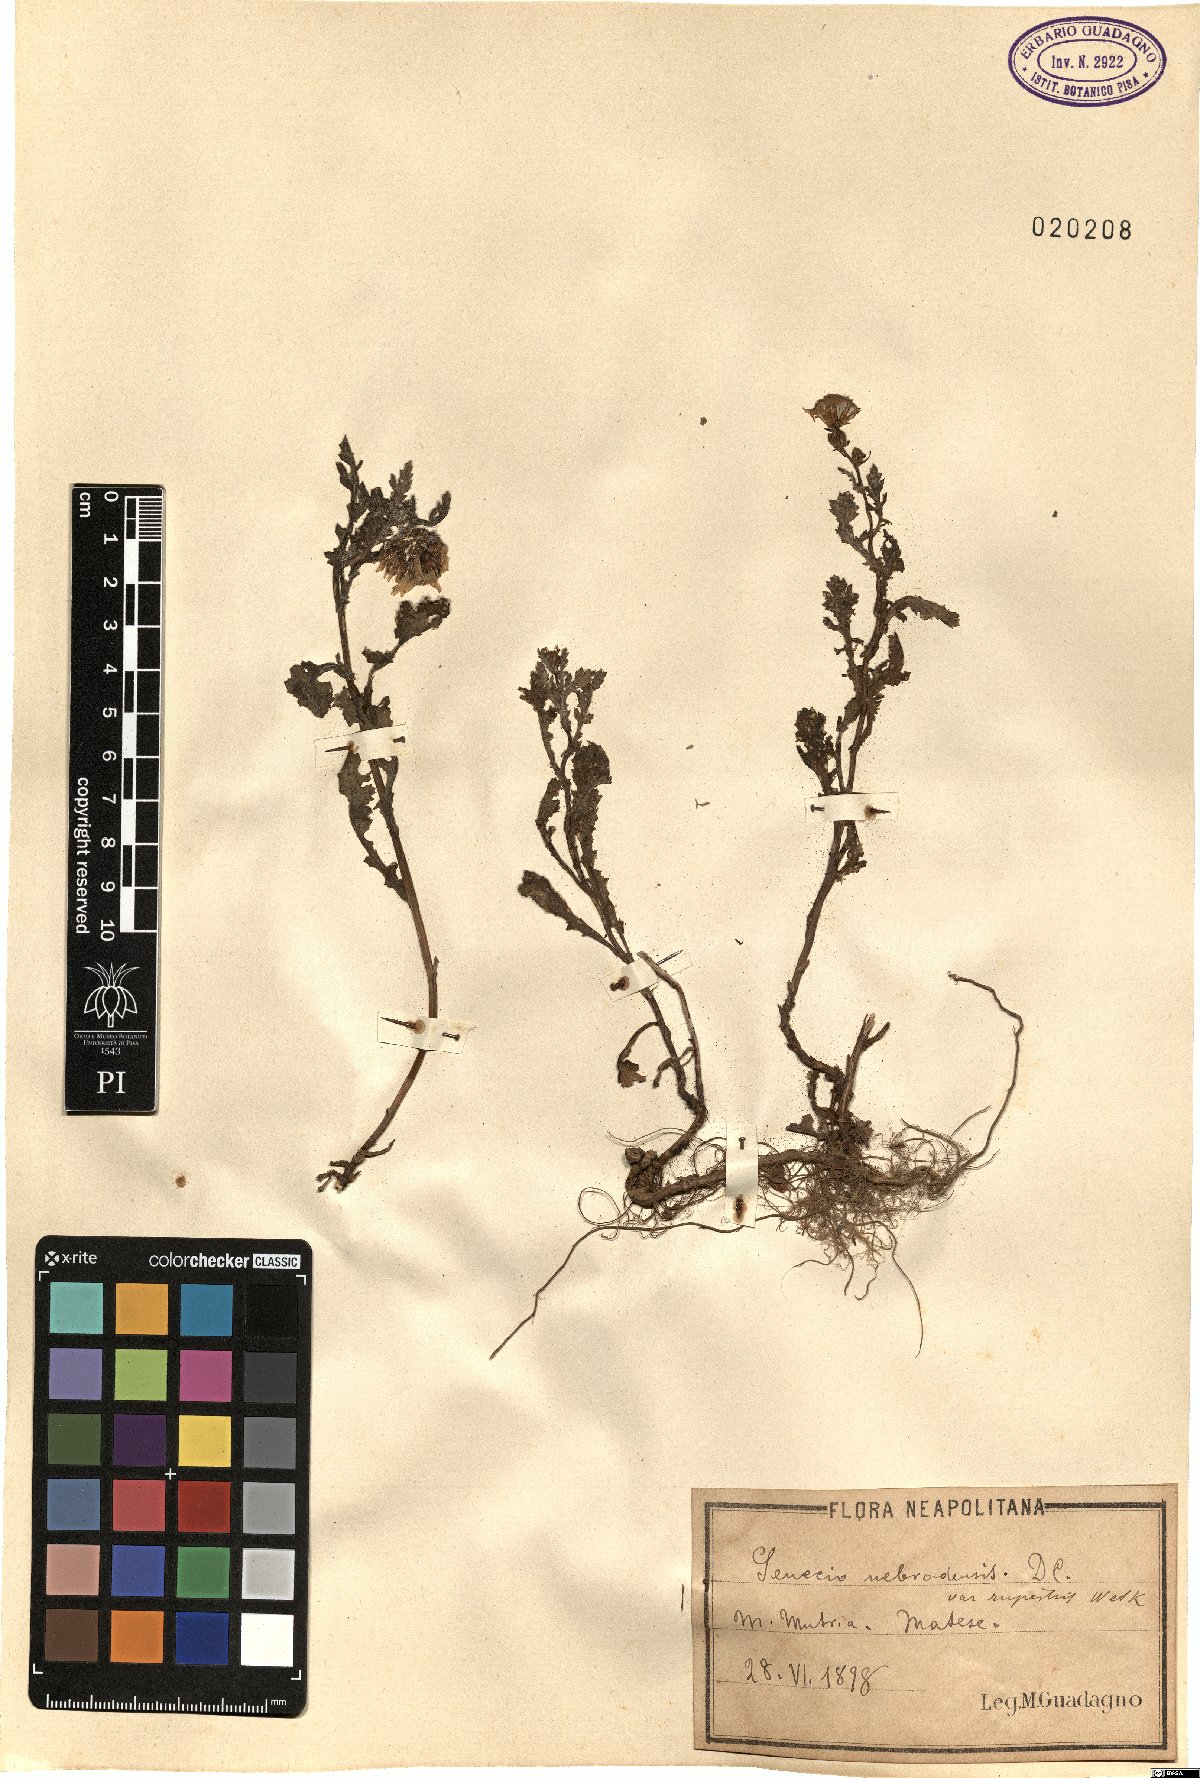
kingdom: Plantae
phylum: Tracheophyta
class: Magnoliopsida
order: Asterales
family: Asteraceae
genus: Senecio
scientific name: Senecio rupestris
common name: Rock ragwort
